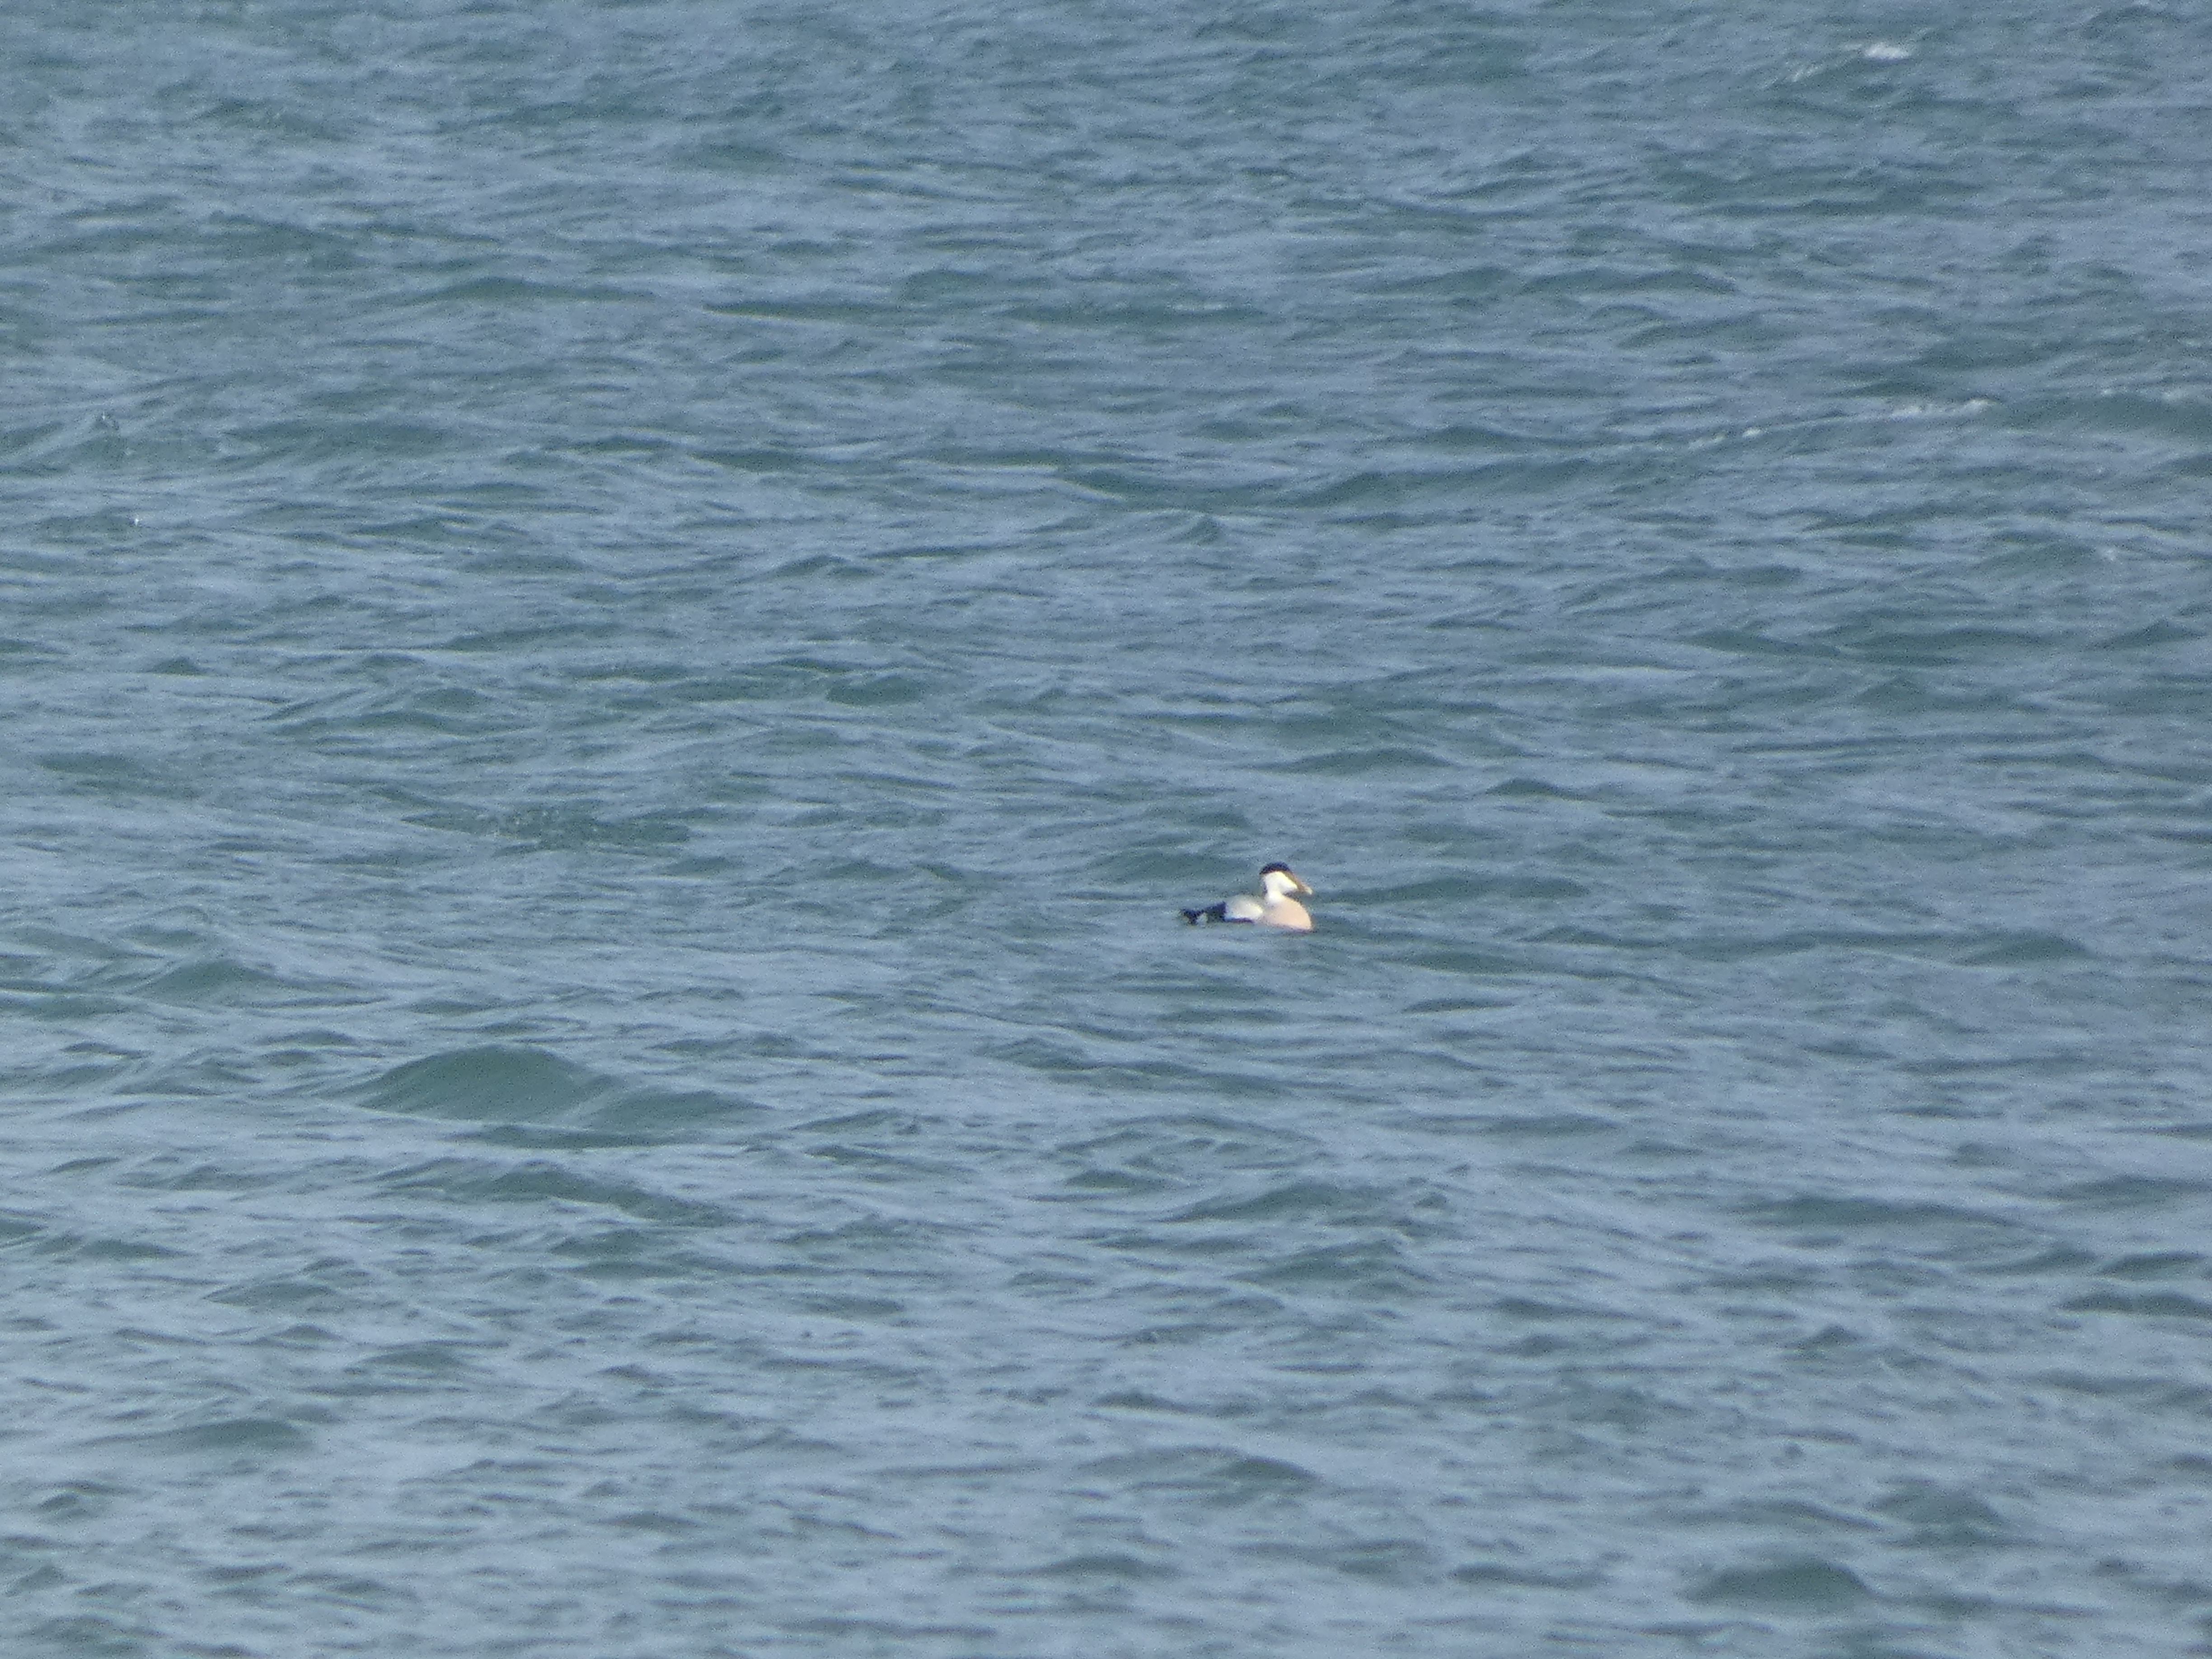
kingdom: Animalia
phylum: Chordata
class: Aves
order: Anseriformes
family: Anatidae
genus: Somateria
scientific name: Somateria mollissima
